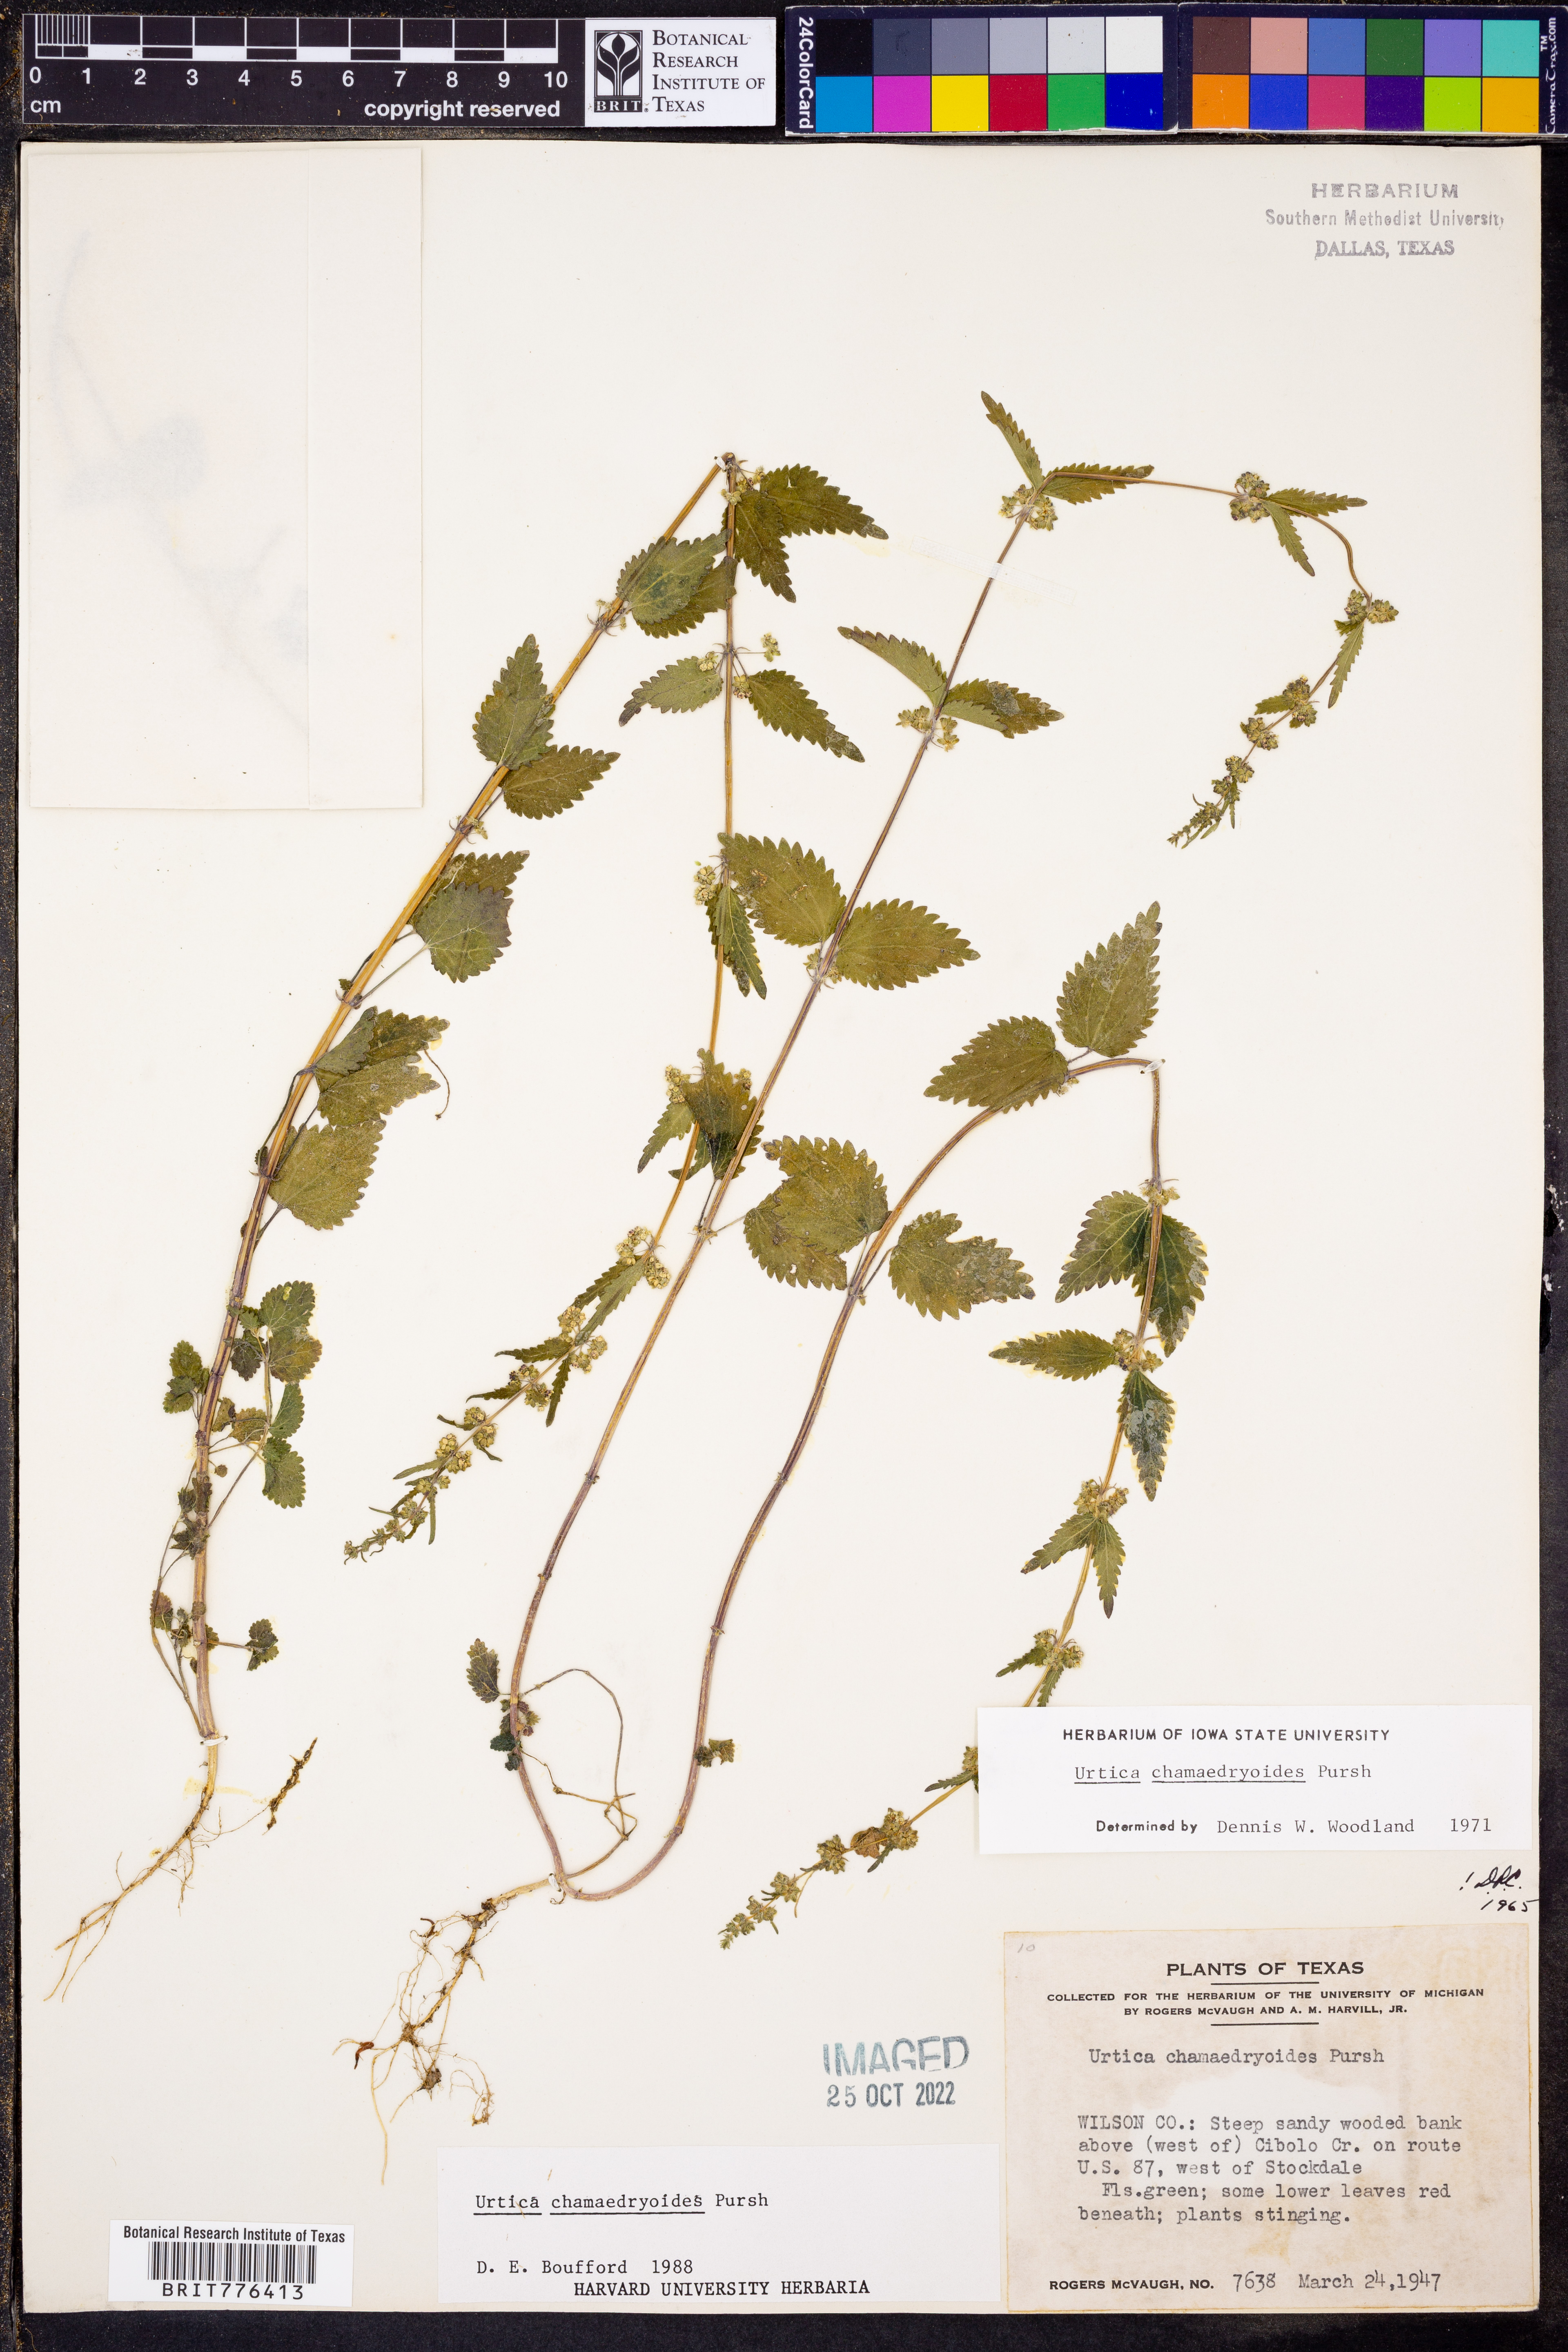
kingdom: Plantae
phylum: Tracheophyta
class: Magnoliopsida
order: Rosales
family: Urticaceae
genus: Urtica
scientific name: Urtica chamaedryoides
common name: Heart-leaf nettle
